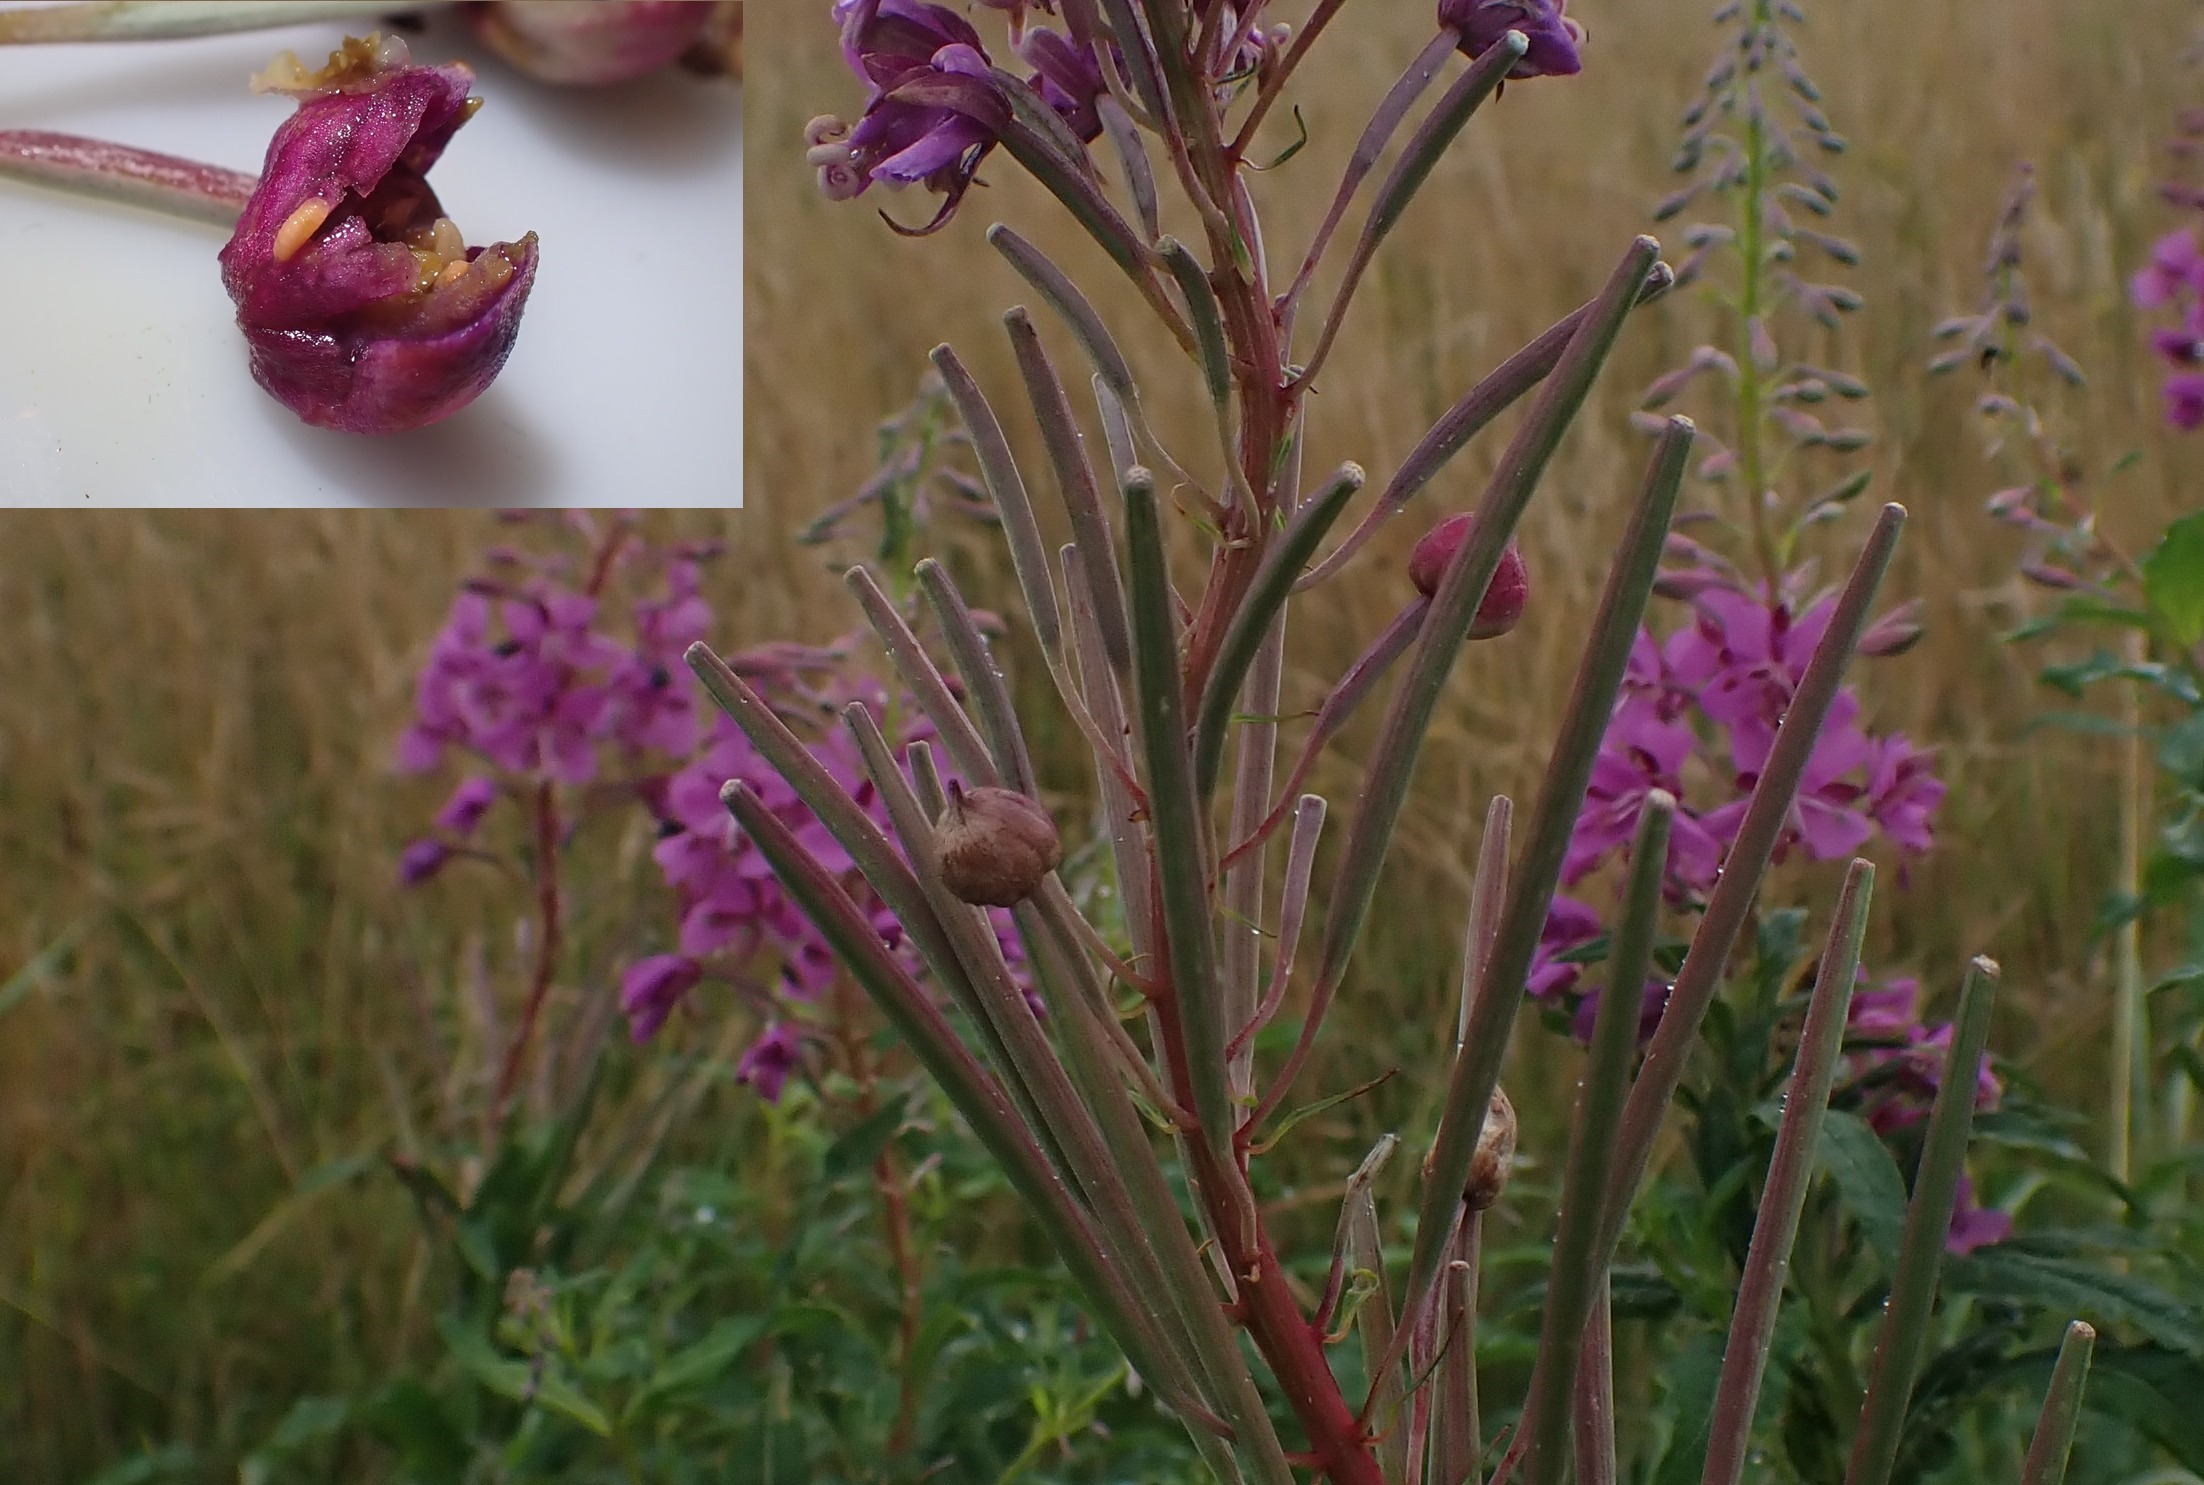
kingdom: Animalia
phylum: Arthropoda
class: Insecta
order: Diptera
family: Cecidomyiidae
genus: Dasineura
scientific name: Dasineura epilobii
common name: Gederamsblomstgalmyg
